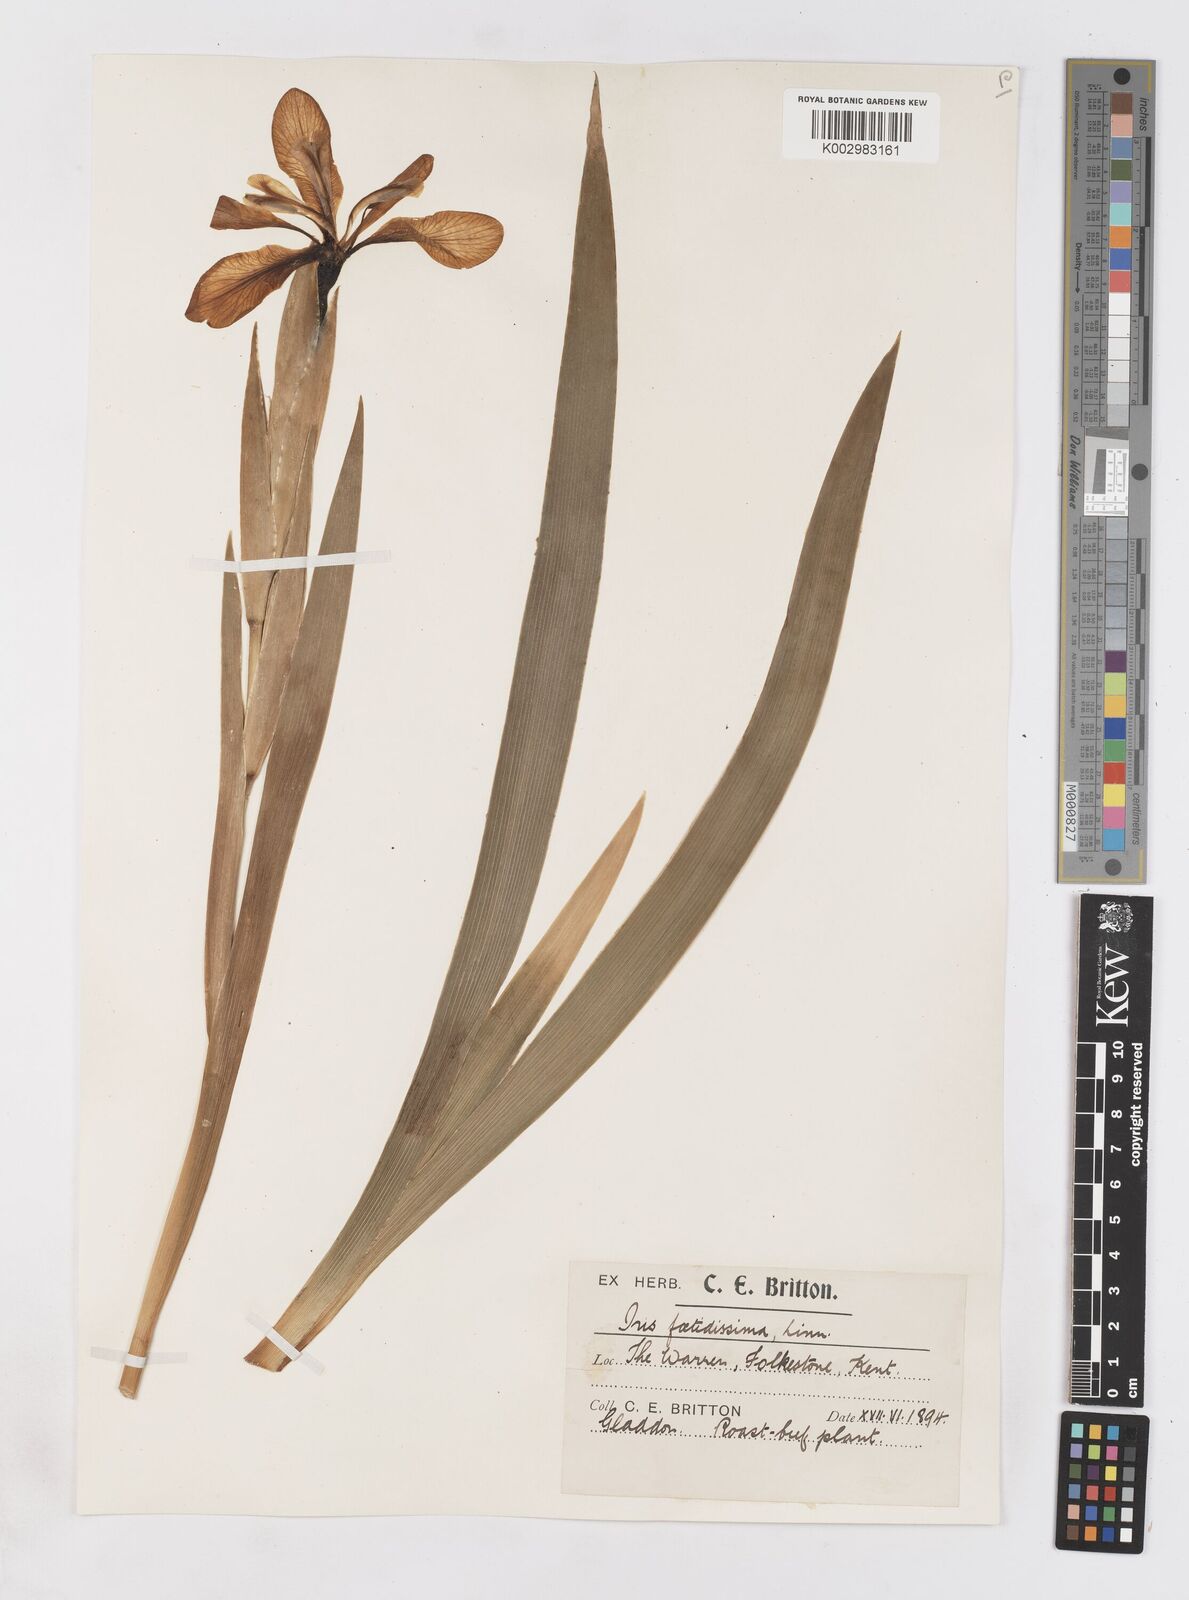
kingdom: Plantae
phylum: Tracheophyta
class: Liliopsida
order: Asparagales
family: Iridaceae
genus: Iris
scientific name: Iris foetidissima
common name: Stinking iris
